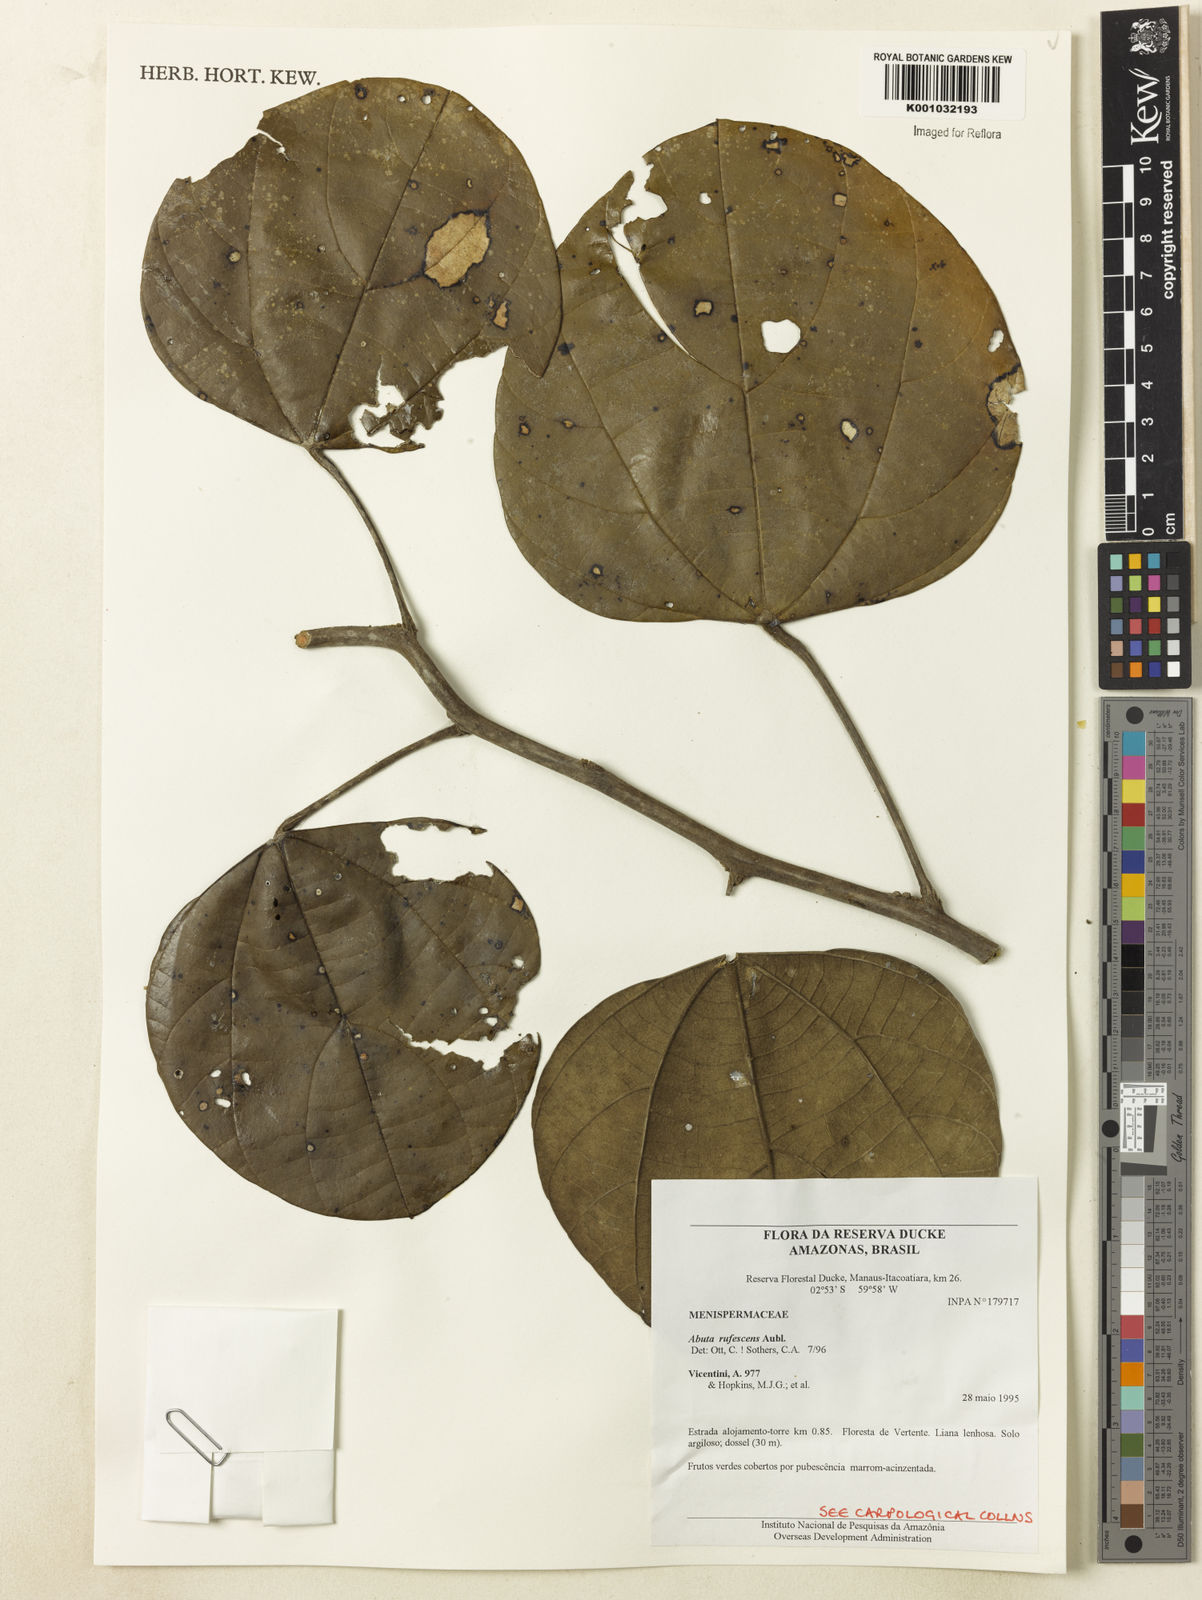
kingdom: Plantae
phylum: Tracheophyta
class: Magnoliopsida
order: Ranunculales
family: Menispermaceae
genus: Abuta
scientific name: Abuta
